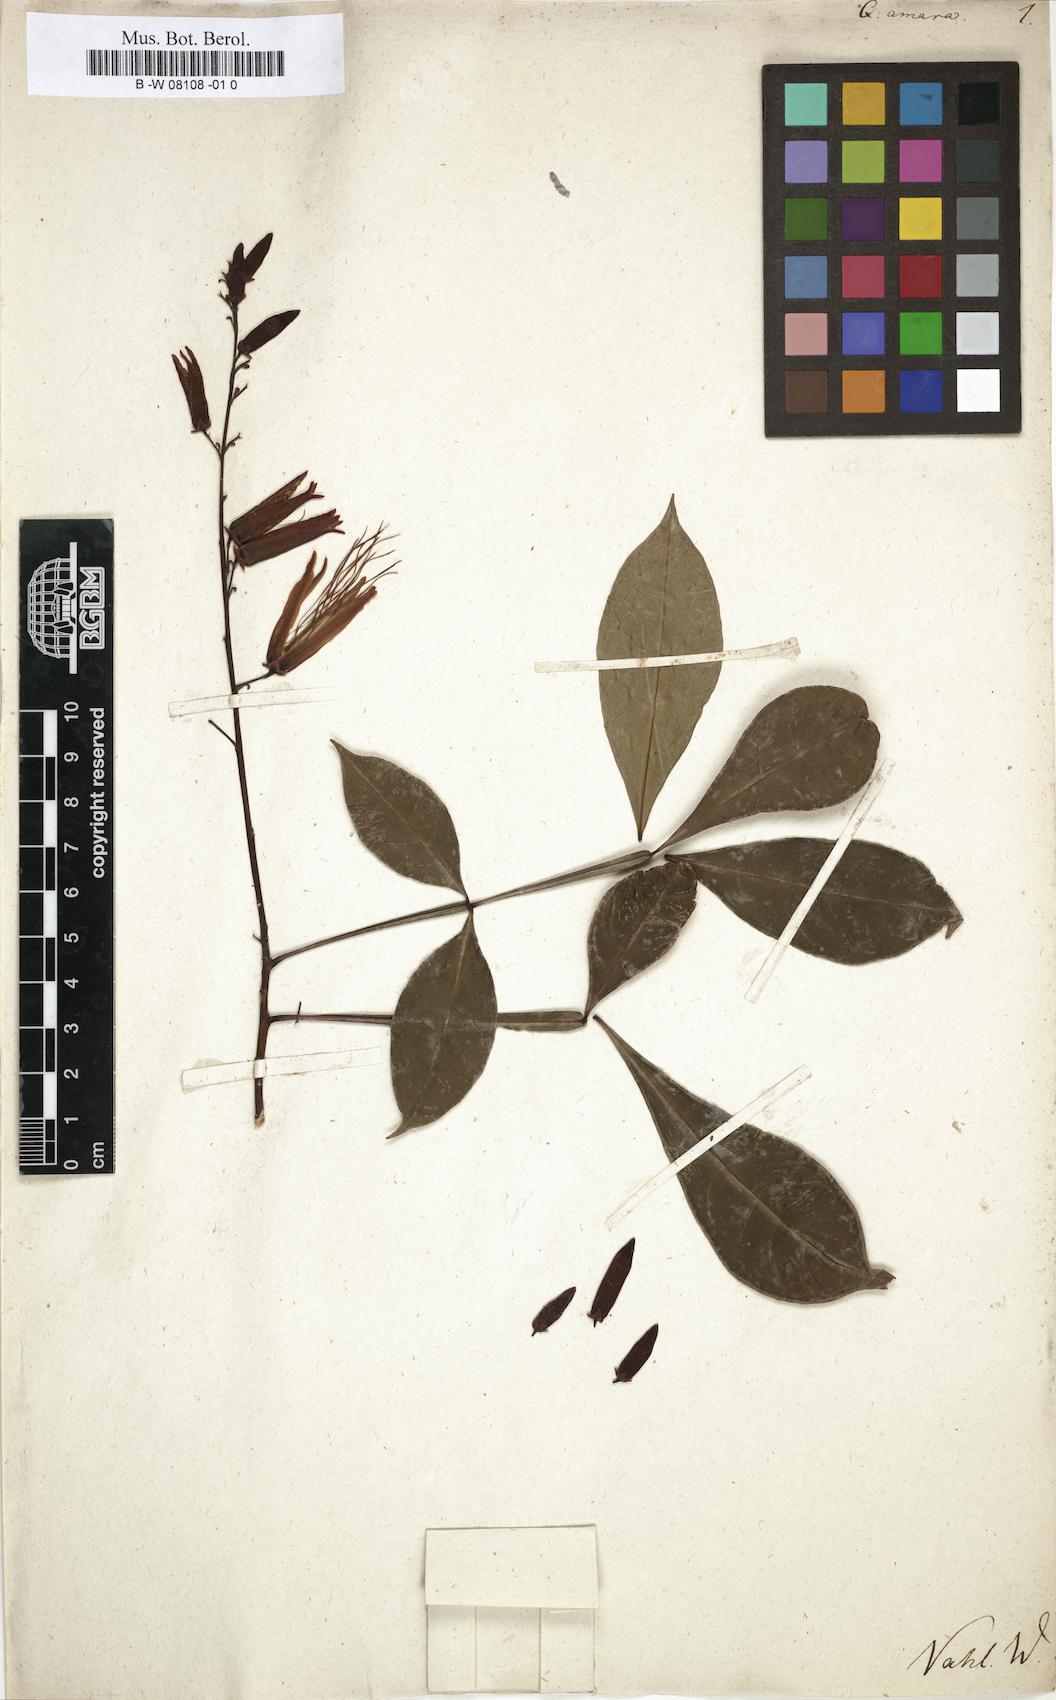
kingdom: Plantae
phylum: Tracheophyta
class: Magnoliopsida
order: Sapindales
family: Simaroubaceae
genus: Quassia
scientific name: Quassia amara
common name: Quassia
